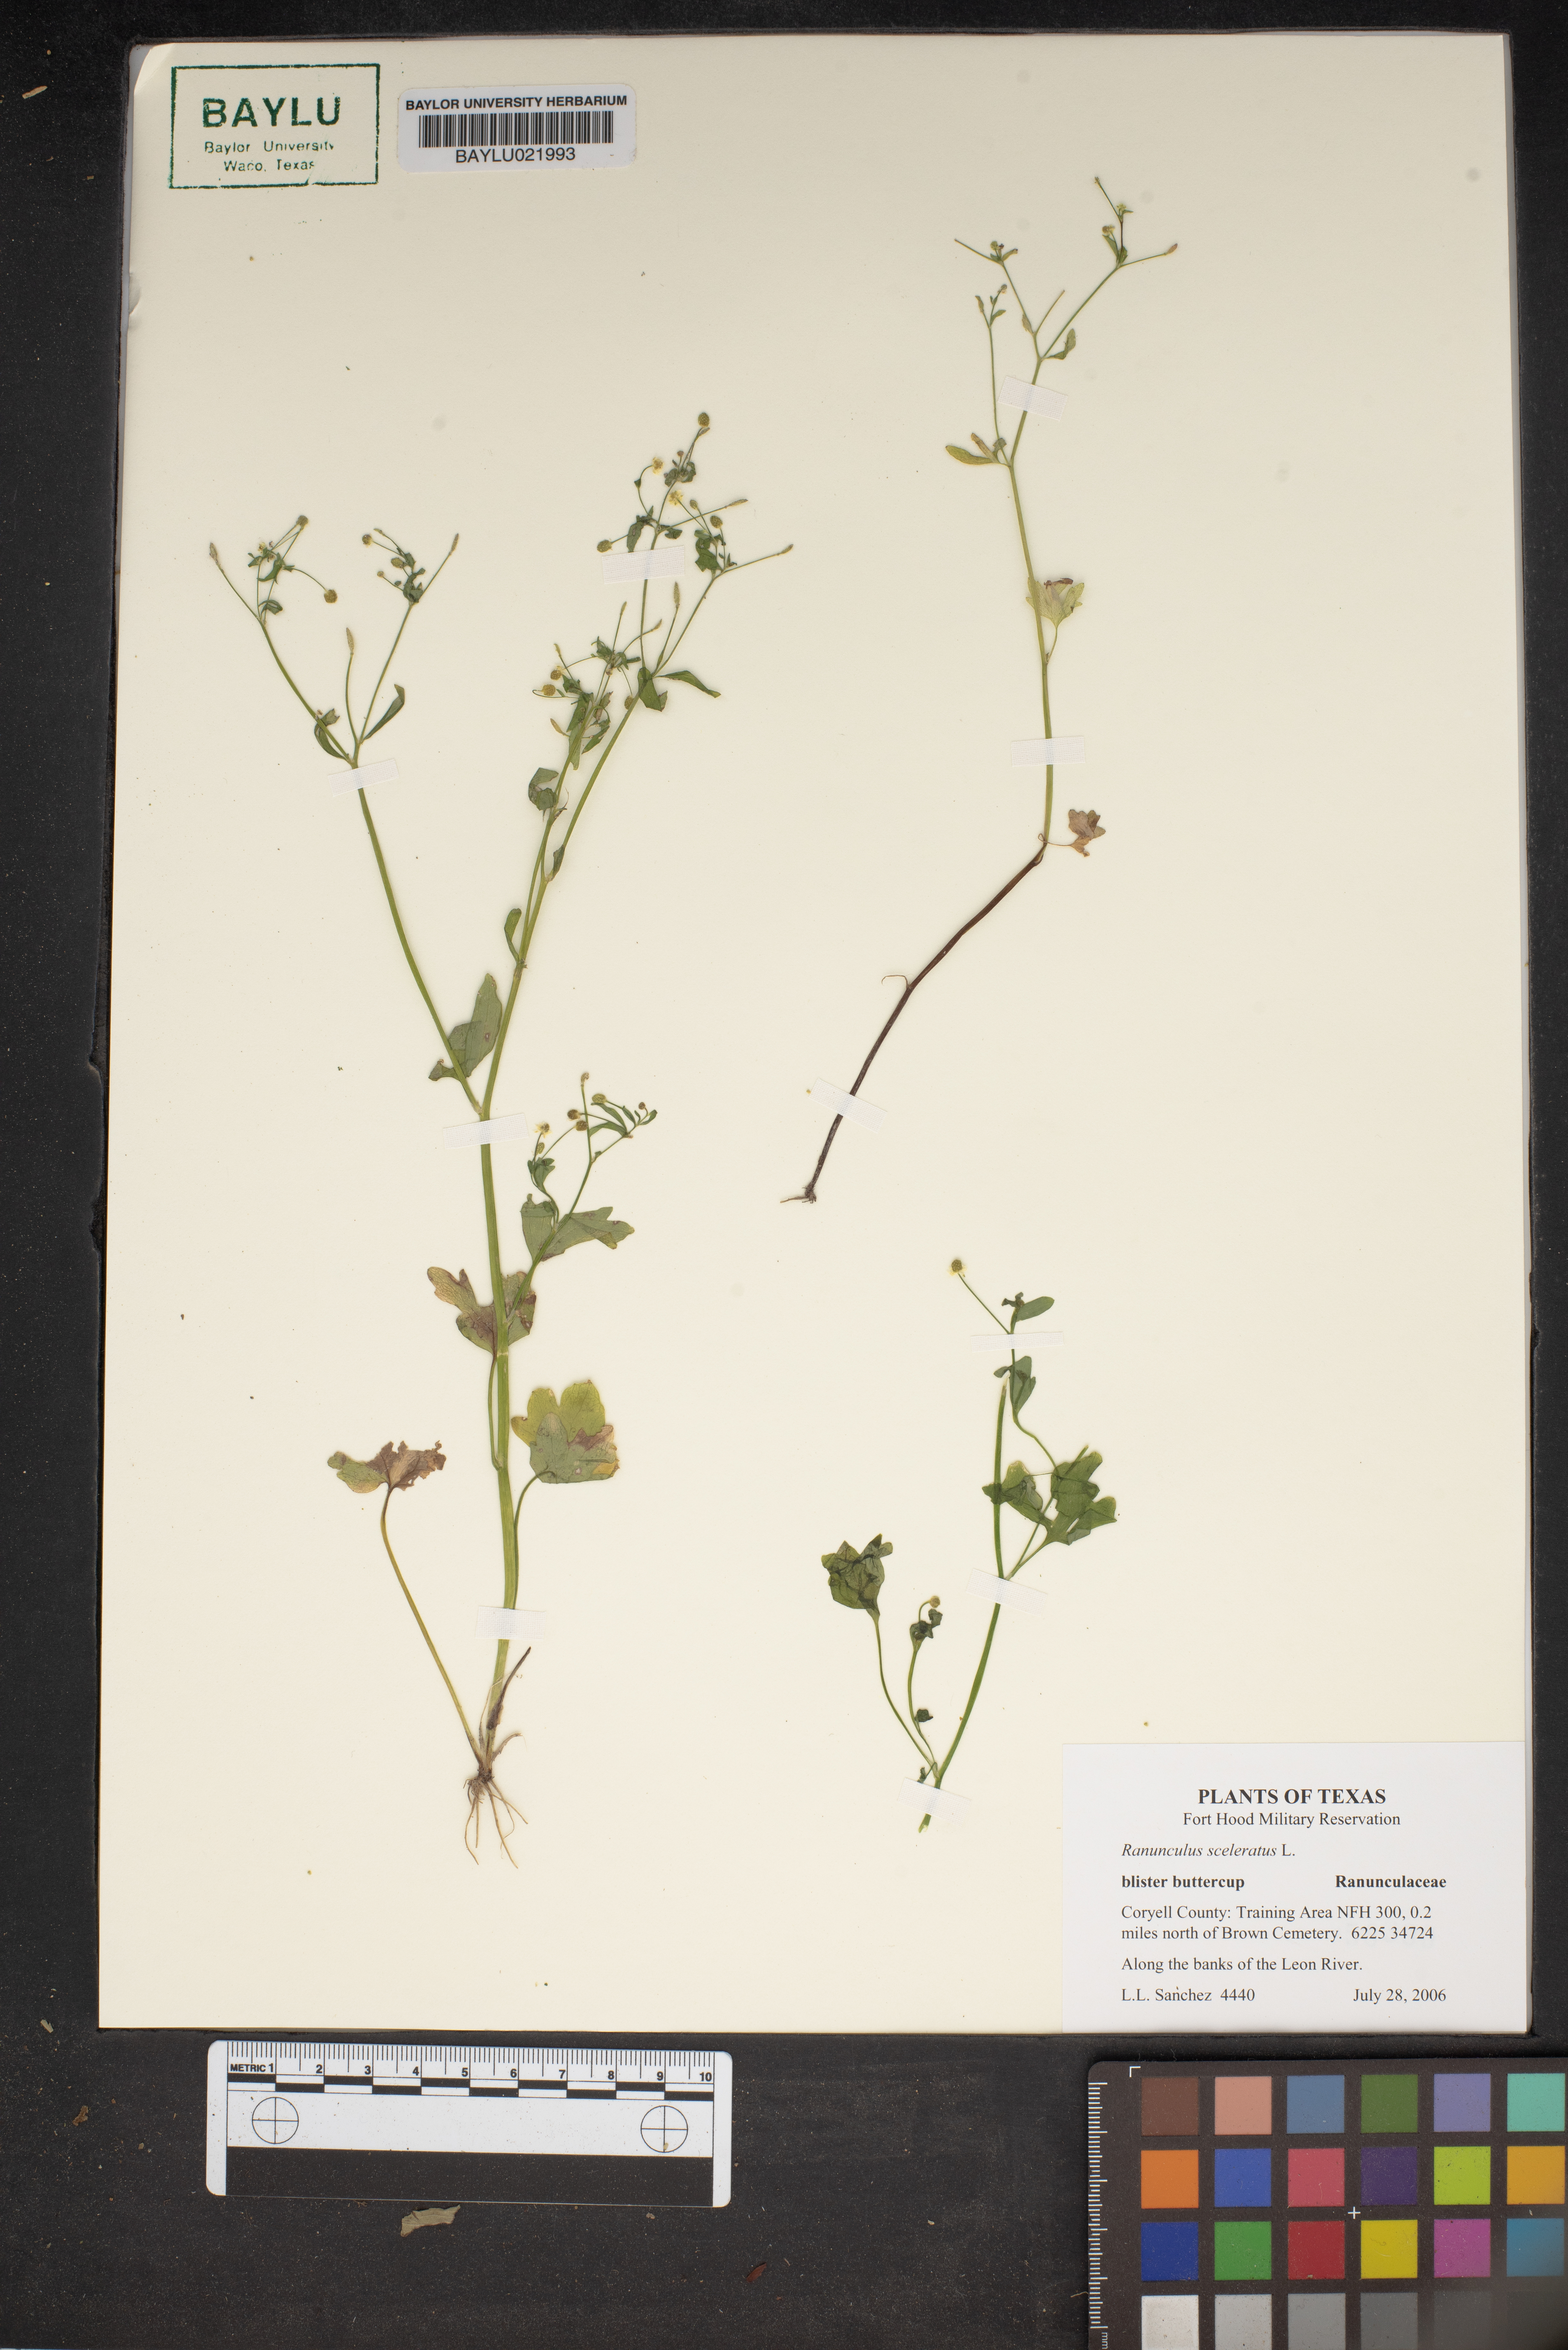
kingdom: Plantae
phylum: Tracheophyta
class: Magnoliopsida
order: Ranunculales
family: Ranunculaceae
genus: Ranunculus
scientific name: Ranunculus sceleratus
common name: Celery-leaved buttercup
